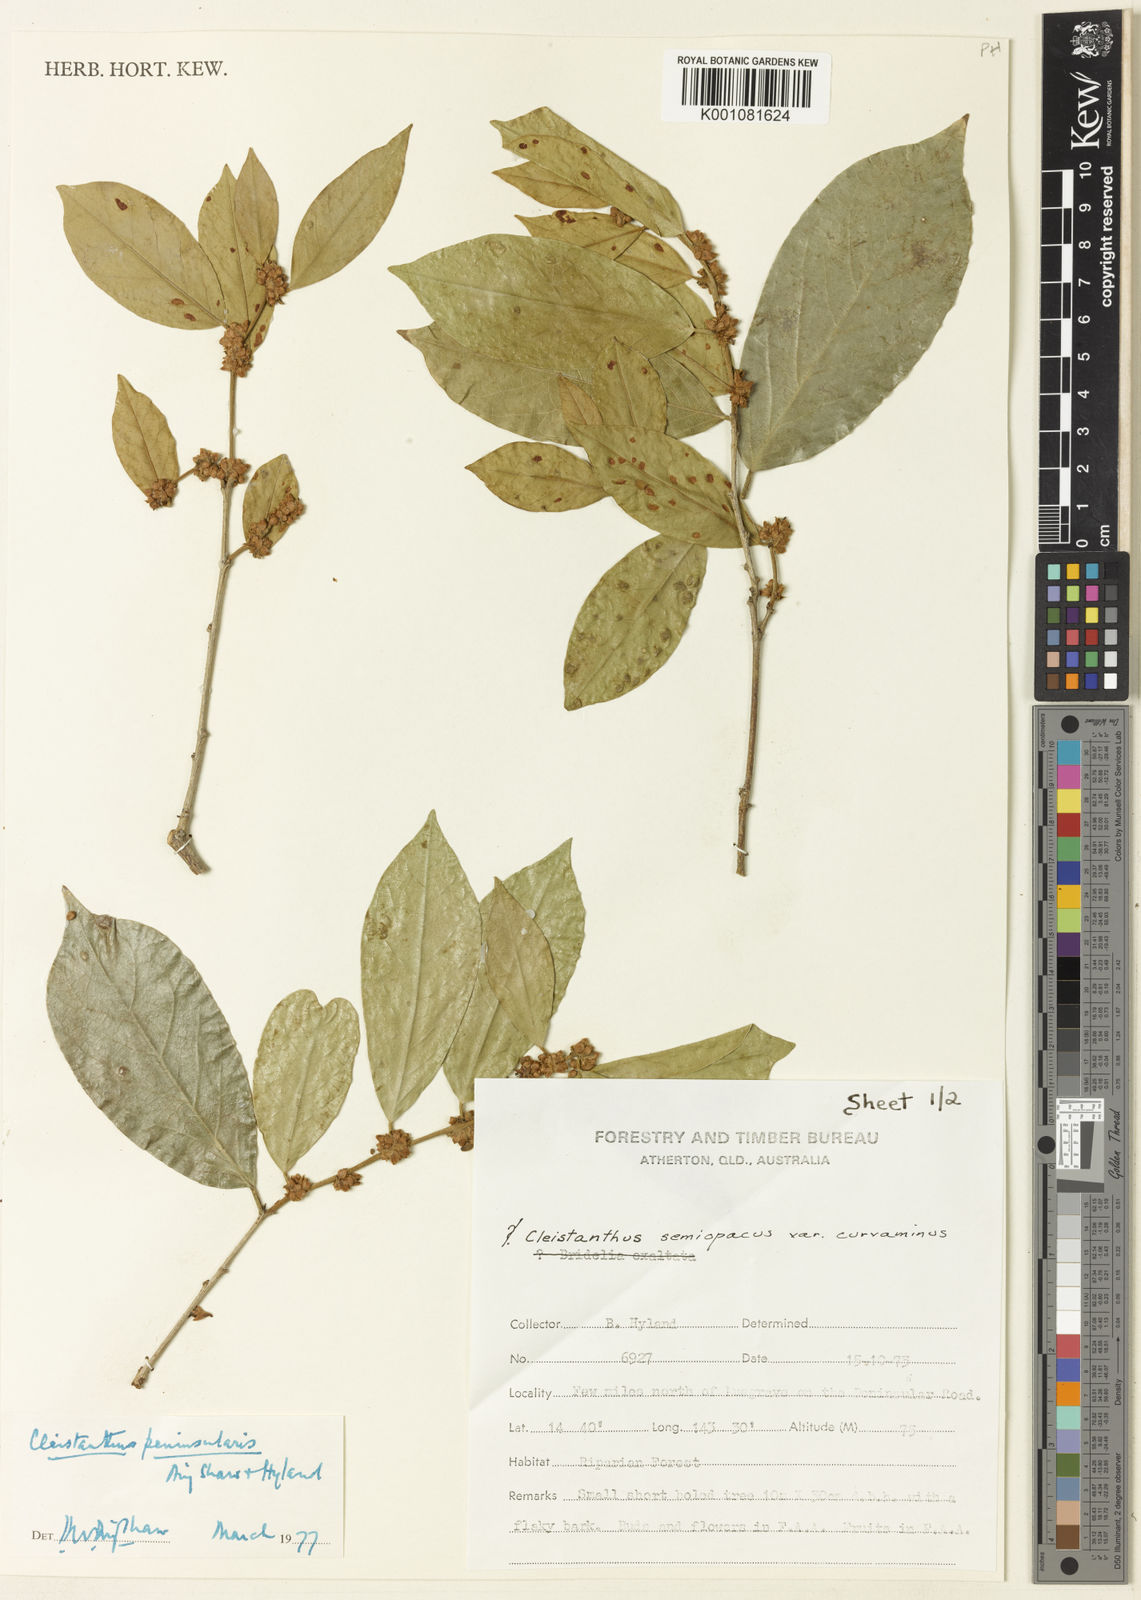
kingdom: Plantae
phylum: Tracheophyta
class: Magnoliopsida
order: Malpighiales
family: Phyllanthaceae
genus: Cleistanthus
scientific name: Cleistanthus peninsularis
